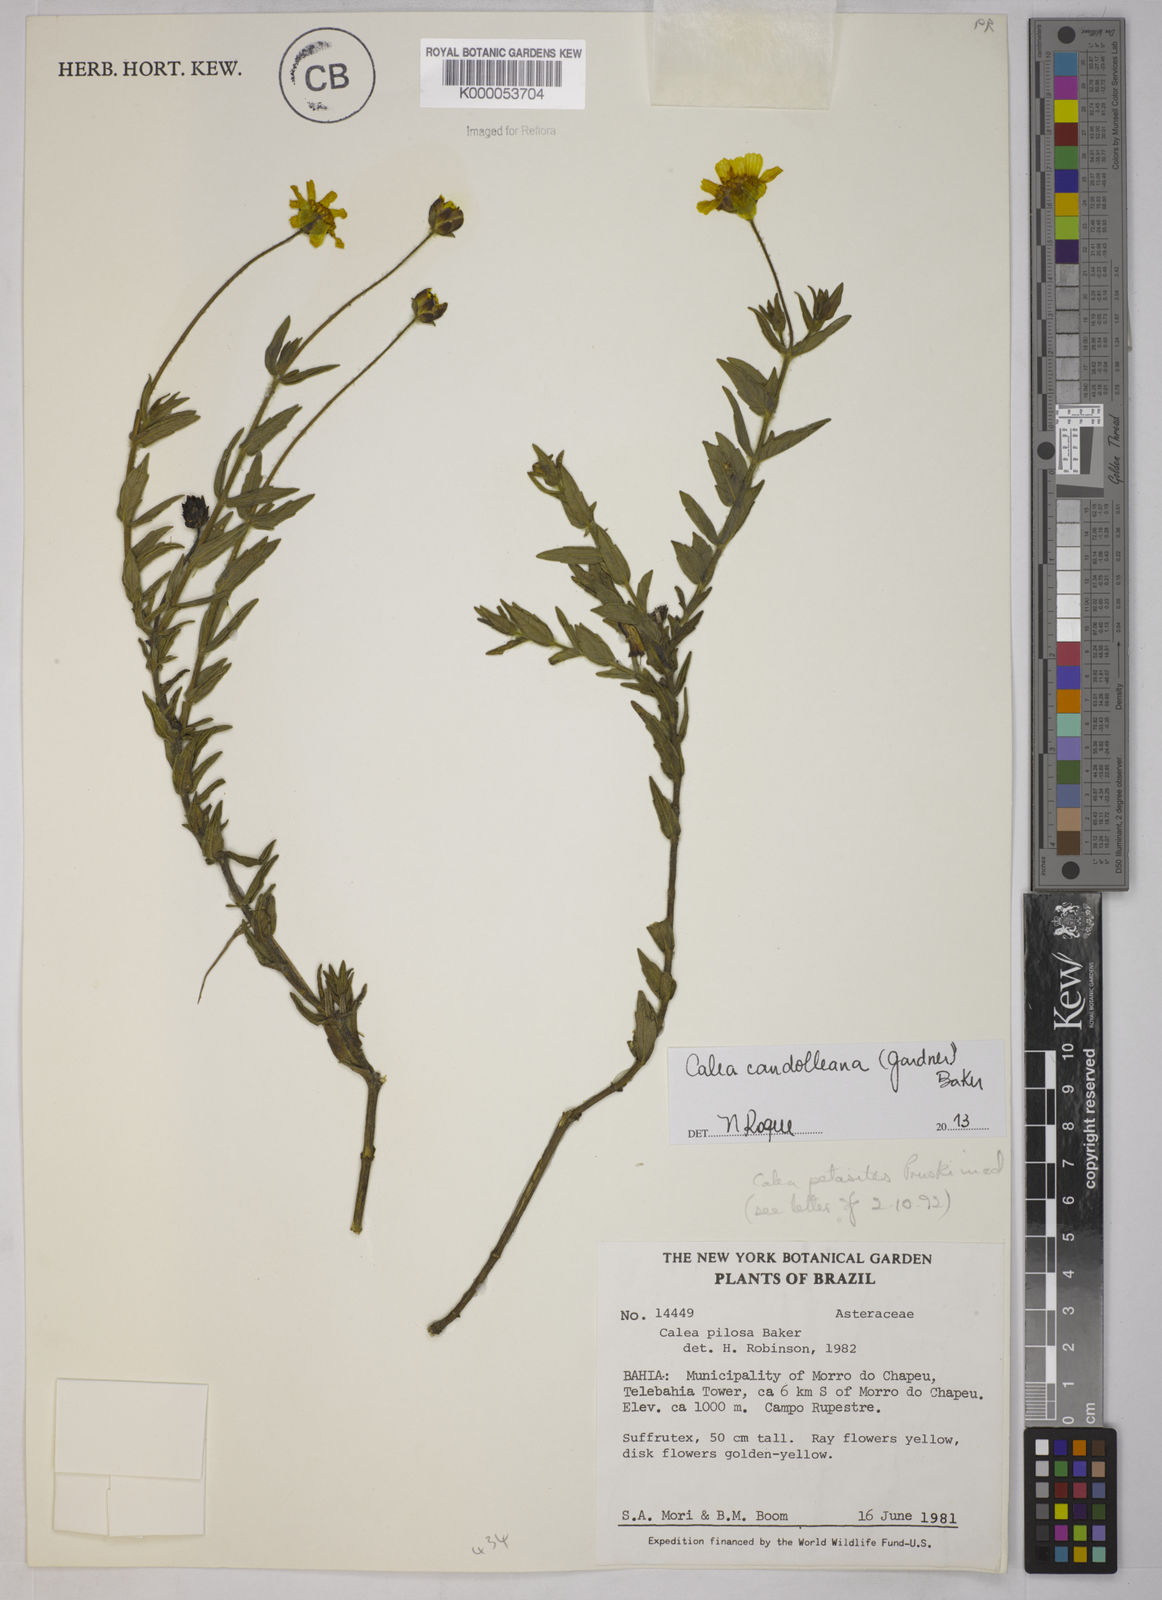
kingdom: Plantae
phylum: Tracheophyta
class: Magnoliopsida
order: Asterales
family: Asteraceae
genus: Calea
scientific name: Calea pilosa
